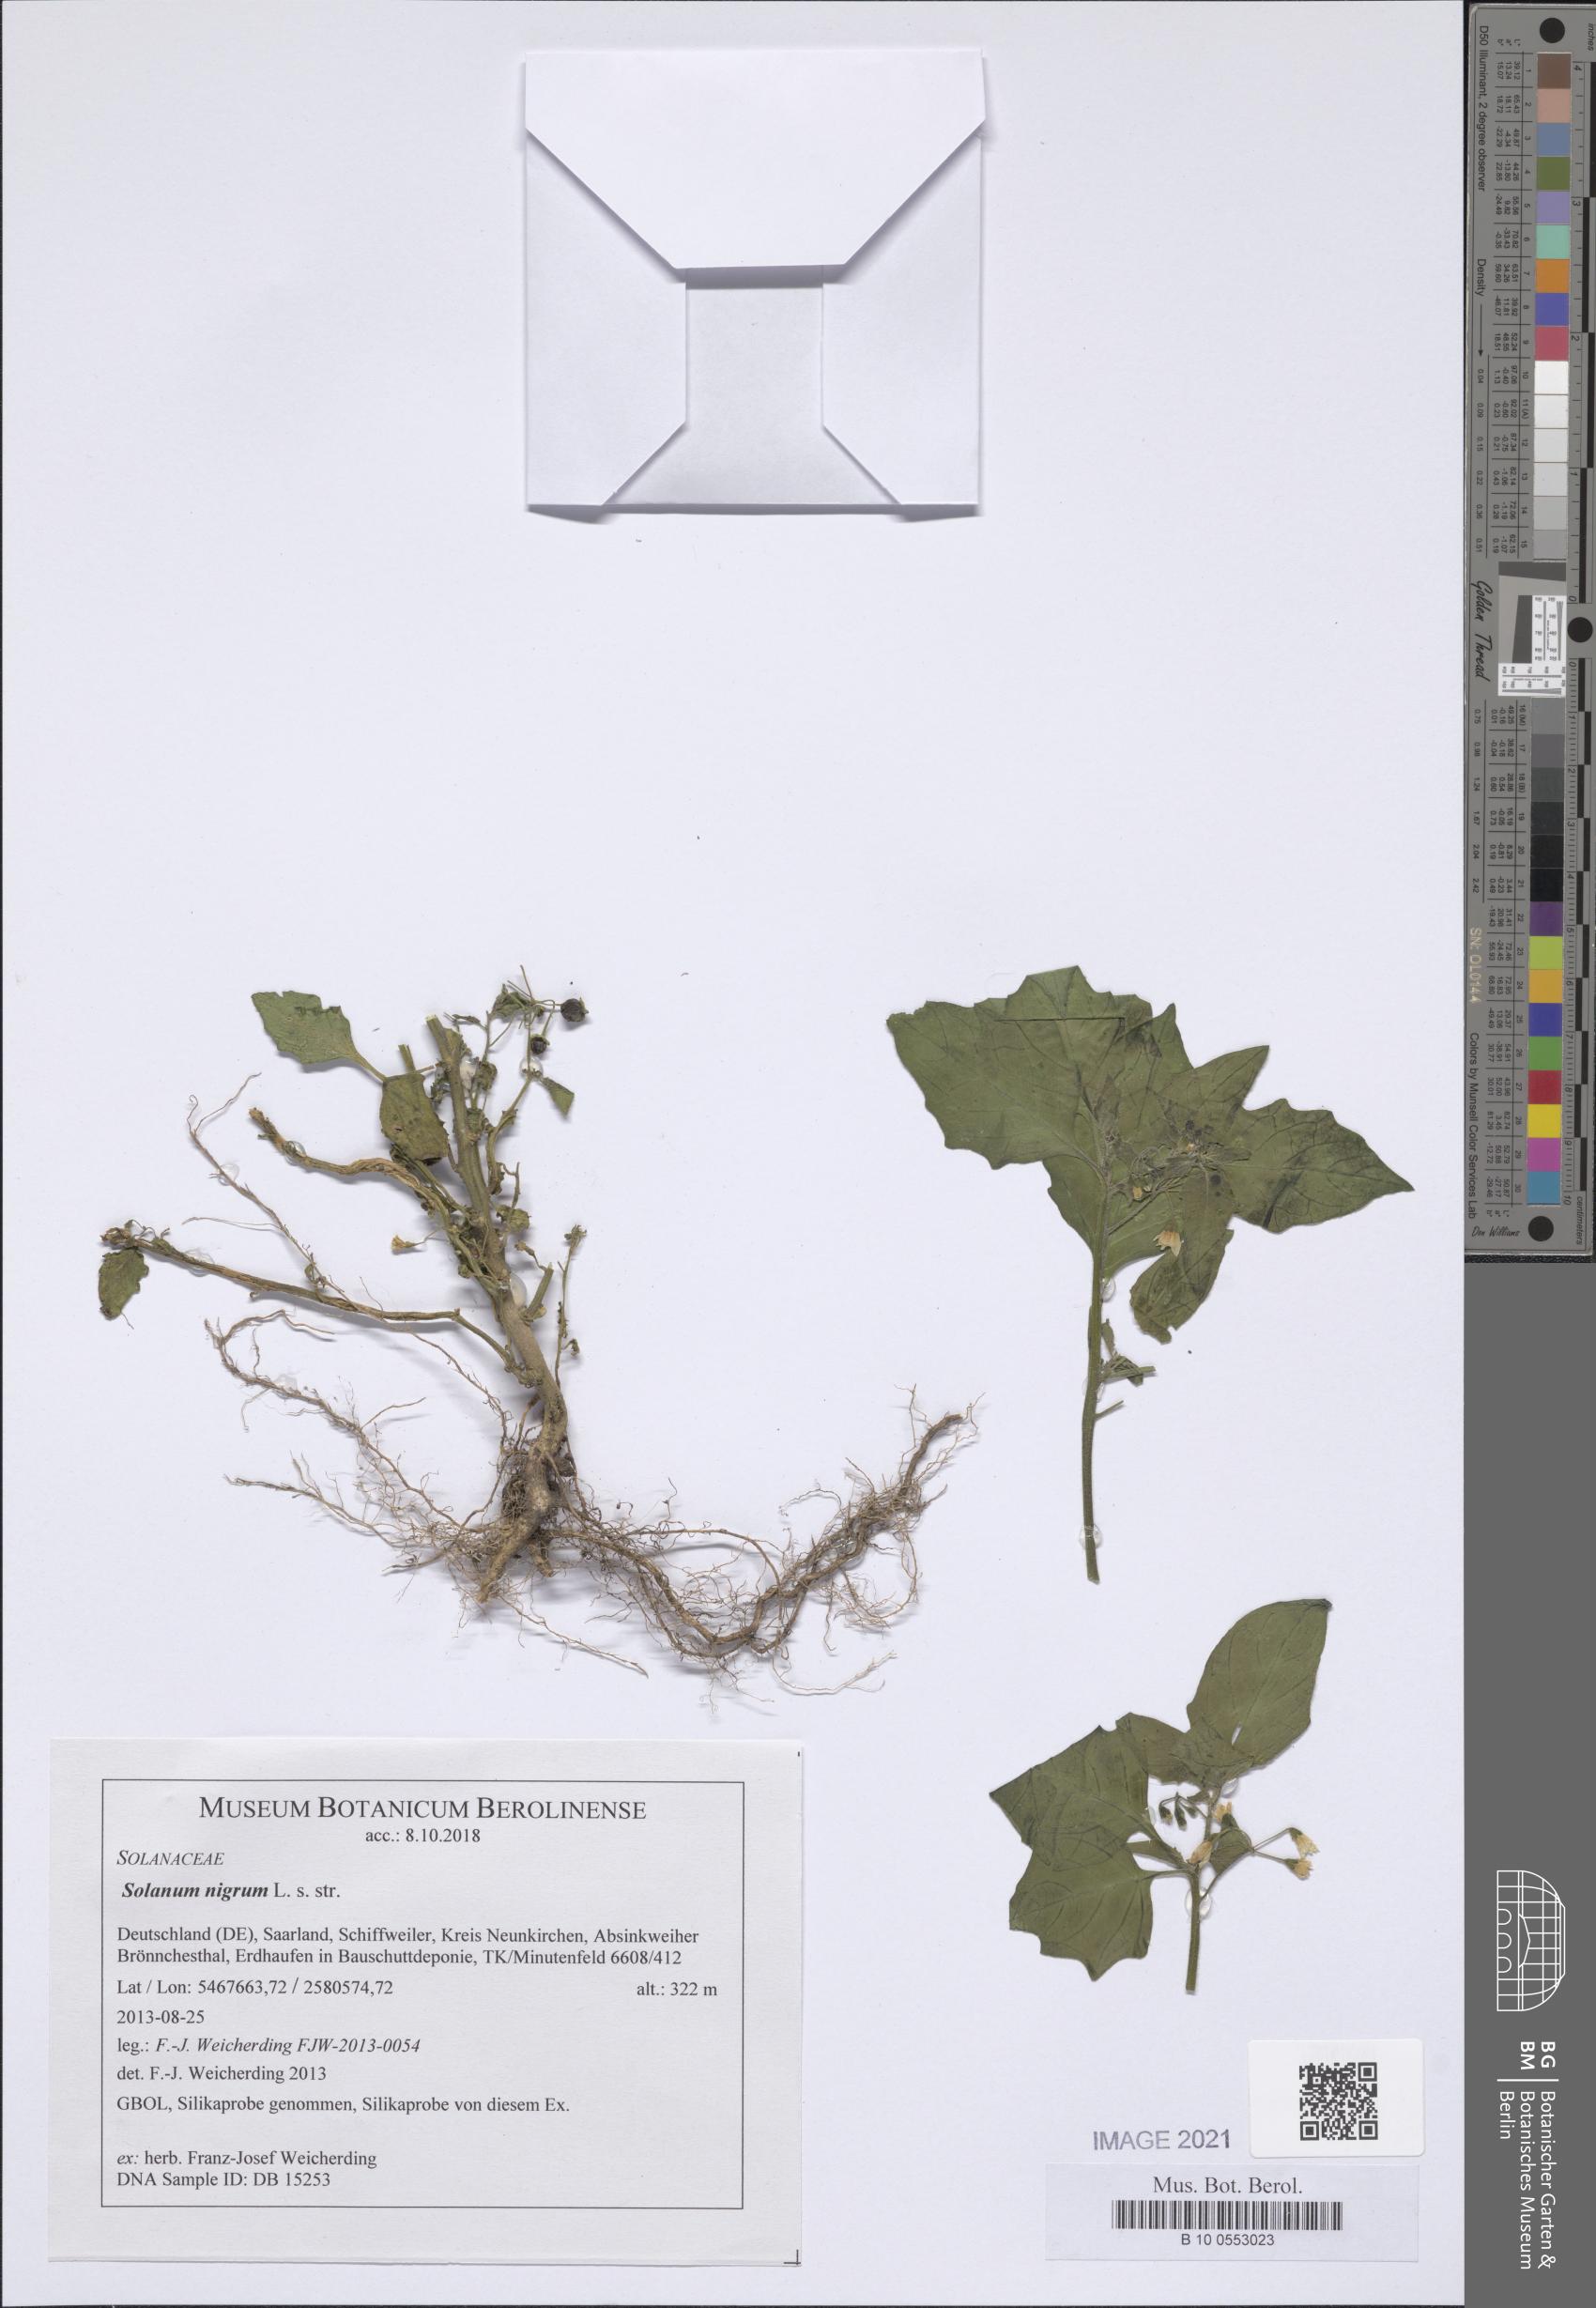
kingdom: Plantae
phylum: Tracheophyta
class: Magnoliopsida
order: Solanales
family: Solanaceae
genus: Solanum
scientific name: Solanum nigrum
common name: Black nightshade
